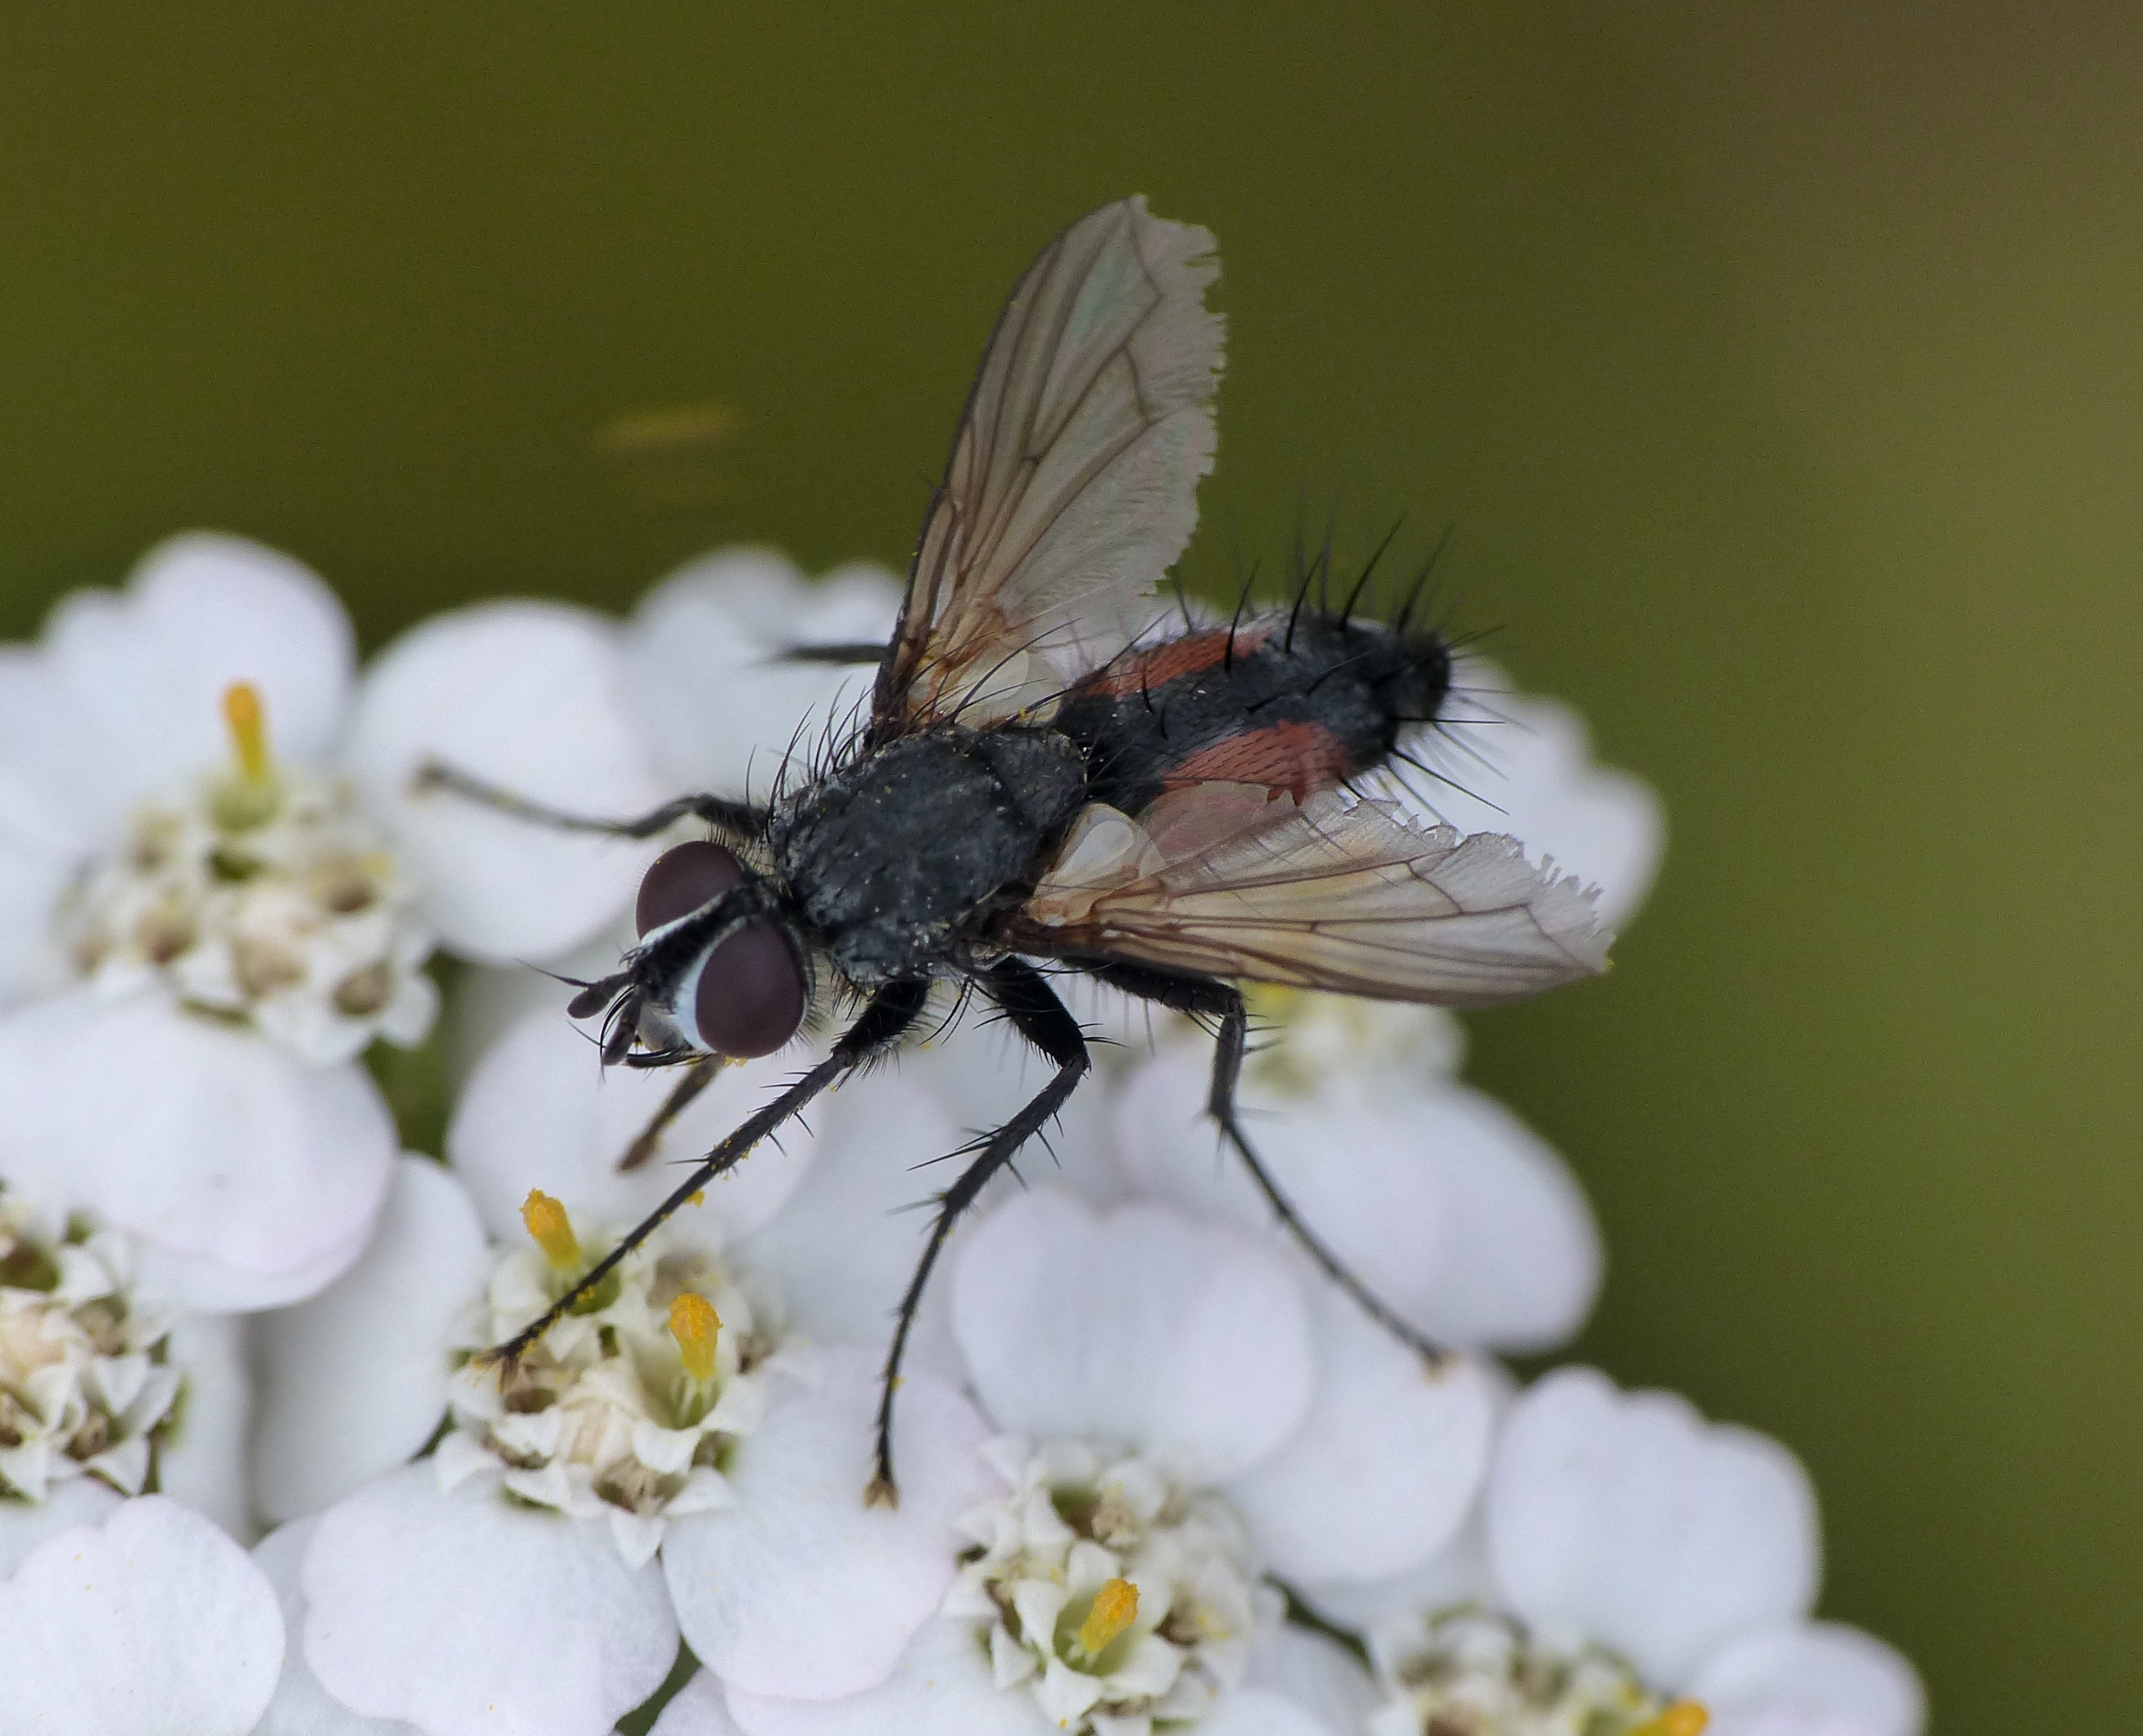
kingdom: Animalia
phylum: Arthropoda
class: Insecta
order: Diptera
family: Tachinidae
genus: Eriothrix
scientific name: Eriothrix rufomaculatus
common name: Rød snylteflue
